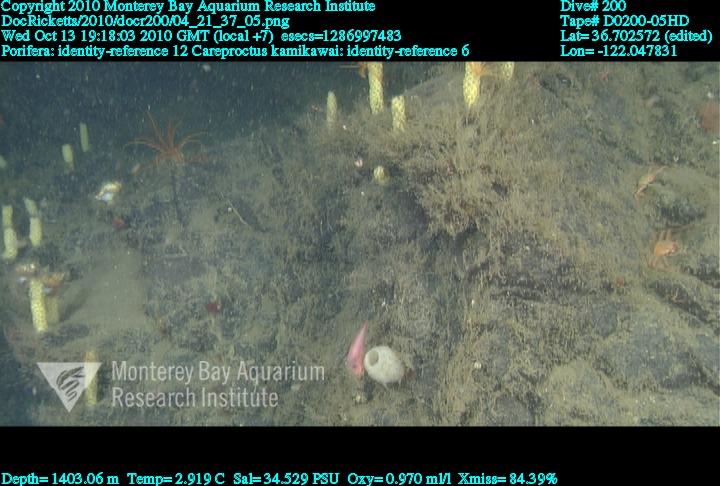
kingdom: Animalia
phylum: Porifera
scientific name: Porifera
